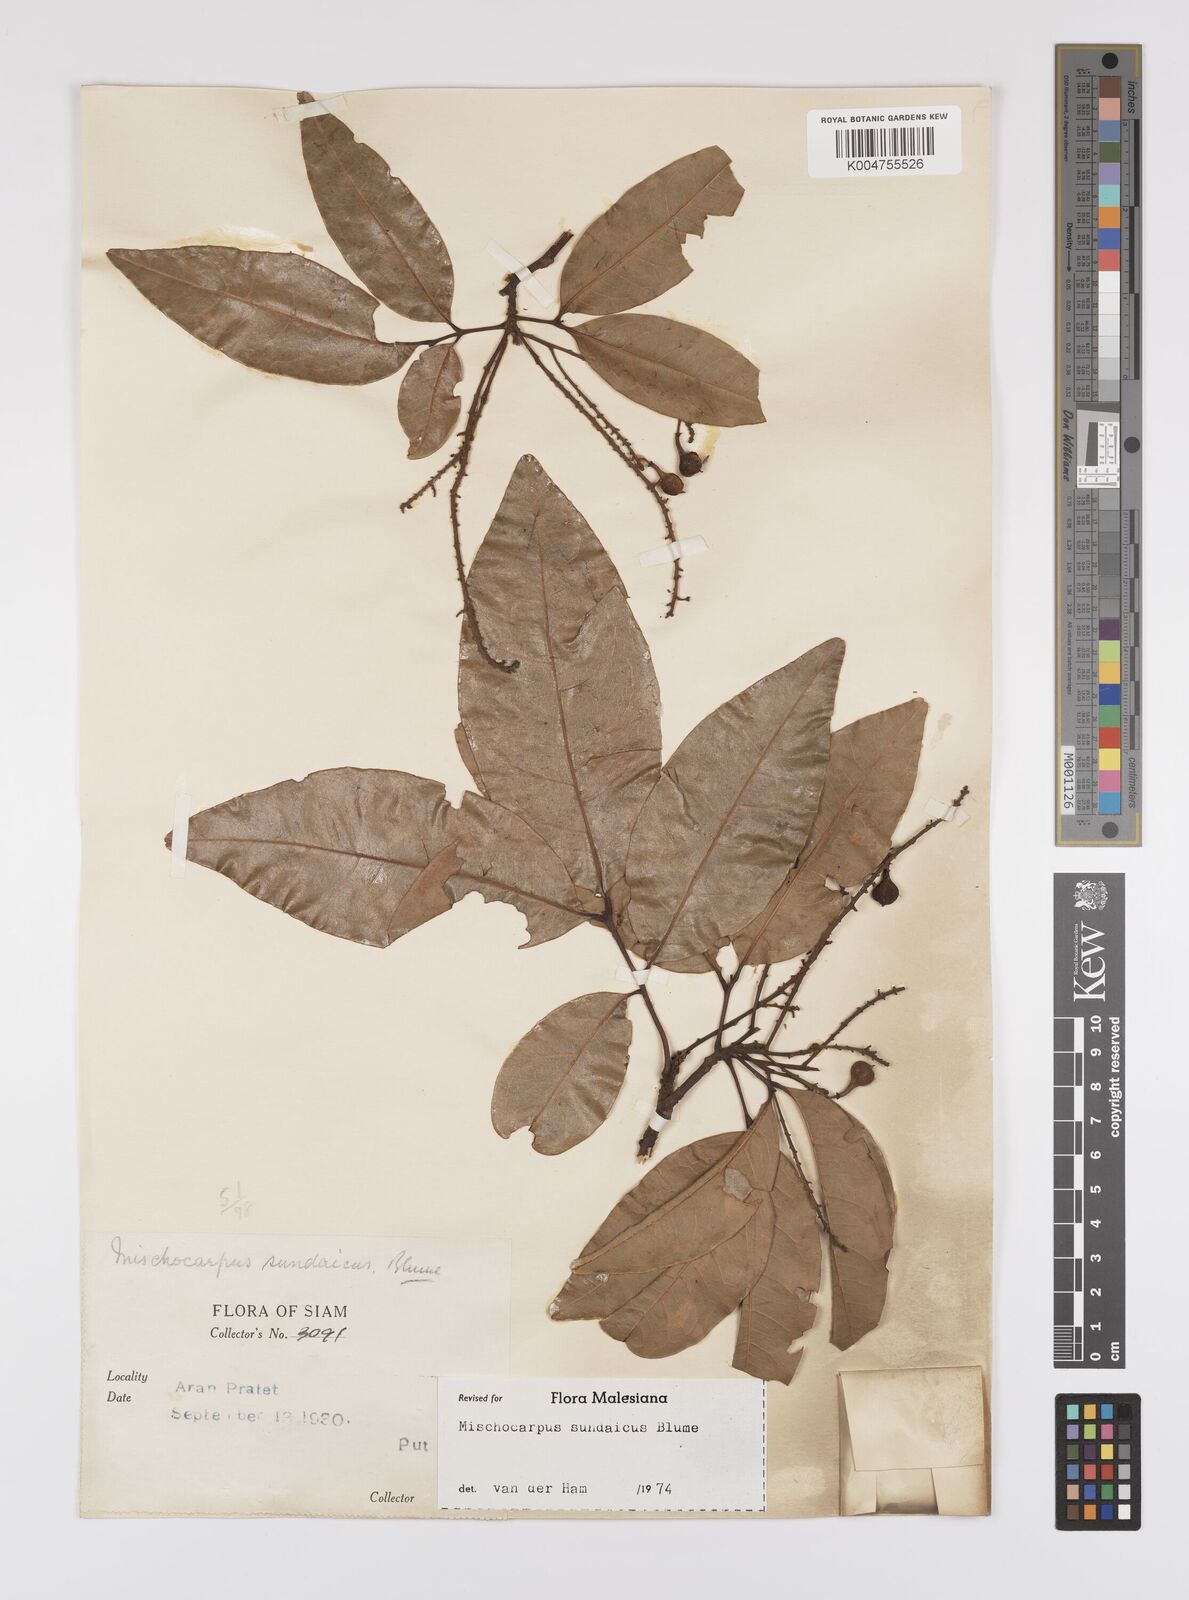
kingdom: Plantae
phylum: Tracheophyta
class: Magnoliopsida
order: Sapindales
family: Sapindaceae
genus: Mischocarpus
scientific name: Mischocarpus sundaicus
